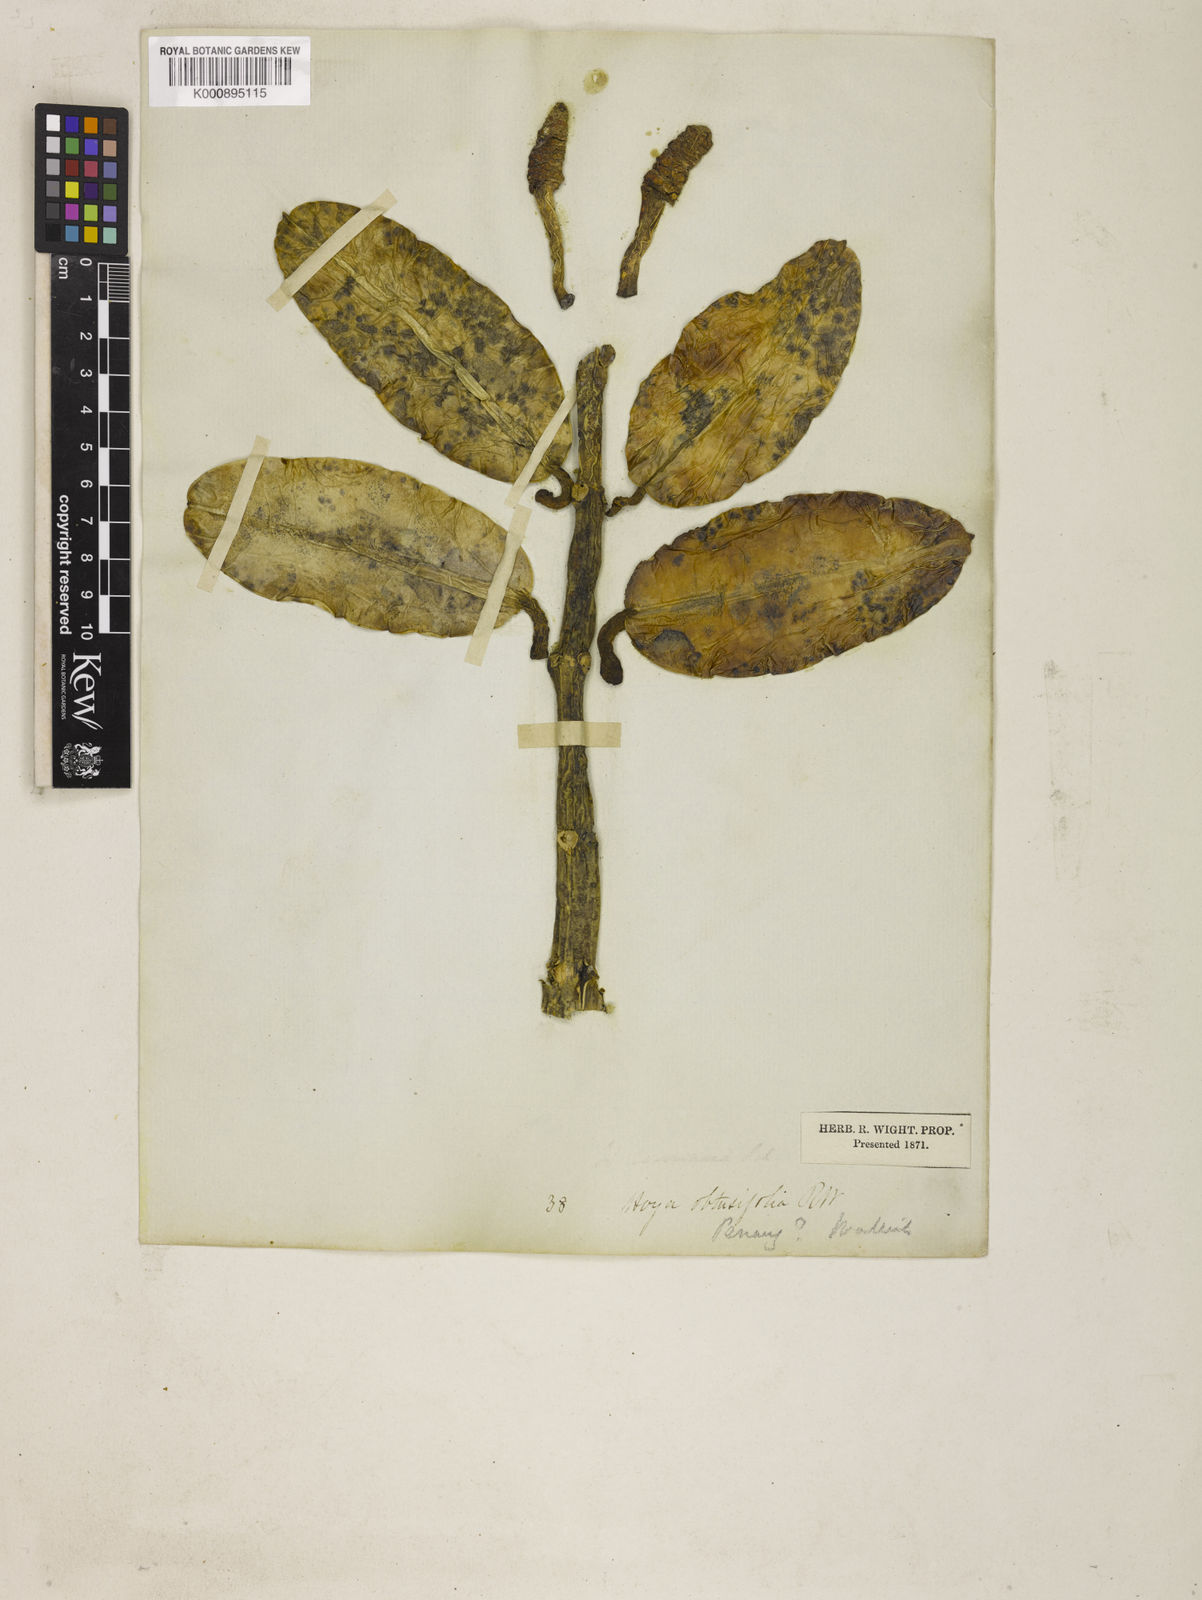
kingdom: Plantae
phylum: Tracheophyta
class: Magnoliopsida
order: Gentianales
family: Apocynaceae
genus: Hoya
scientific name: Hoya obtusifolia
